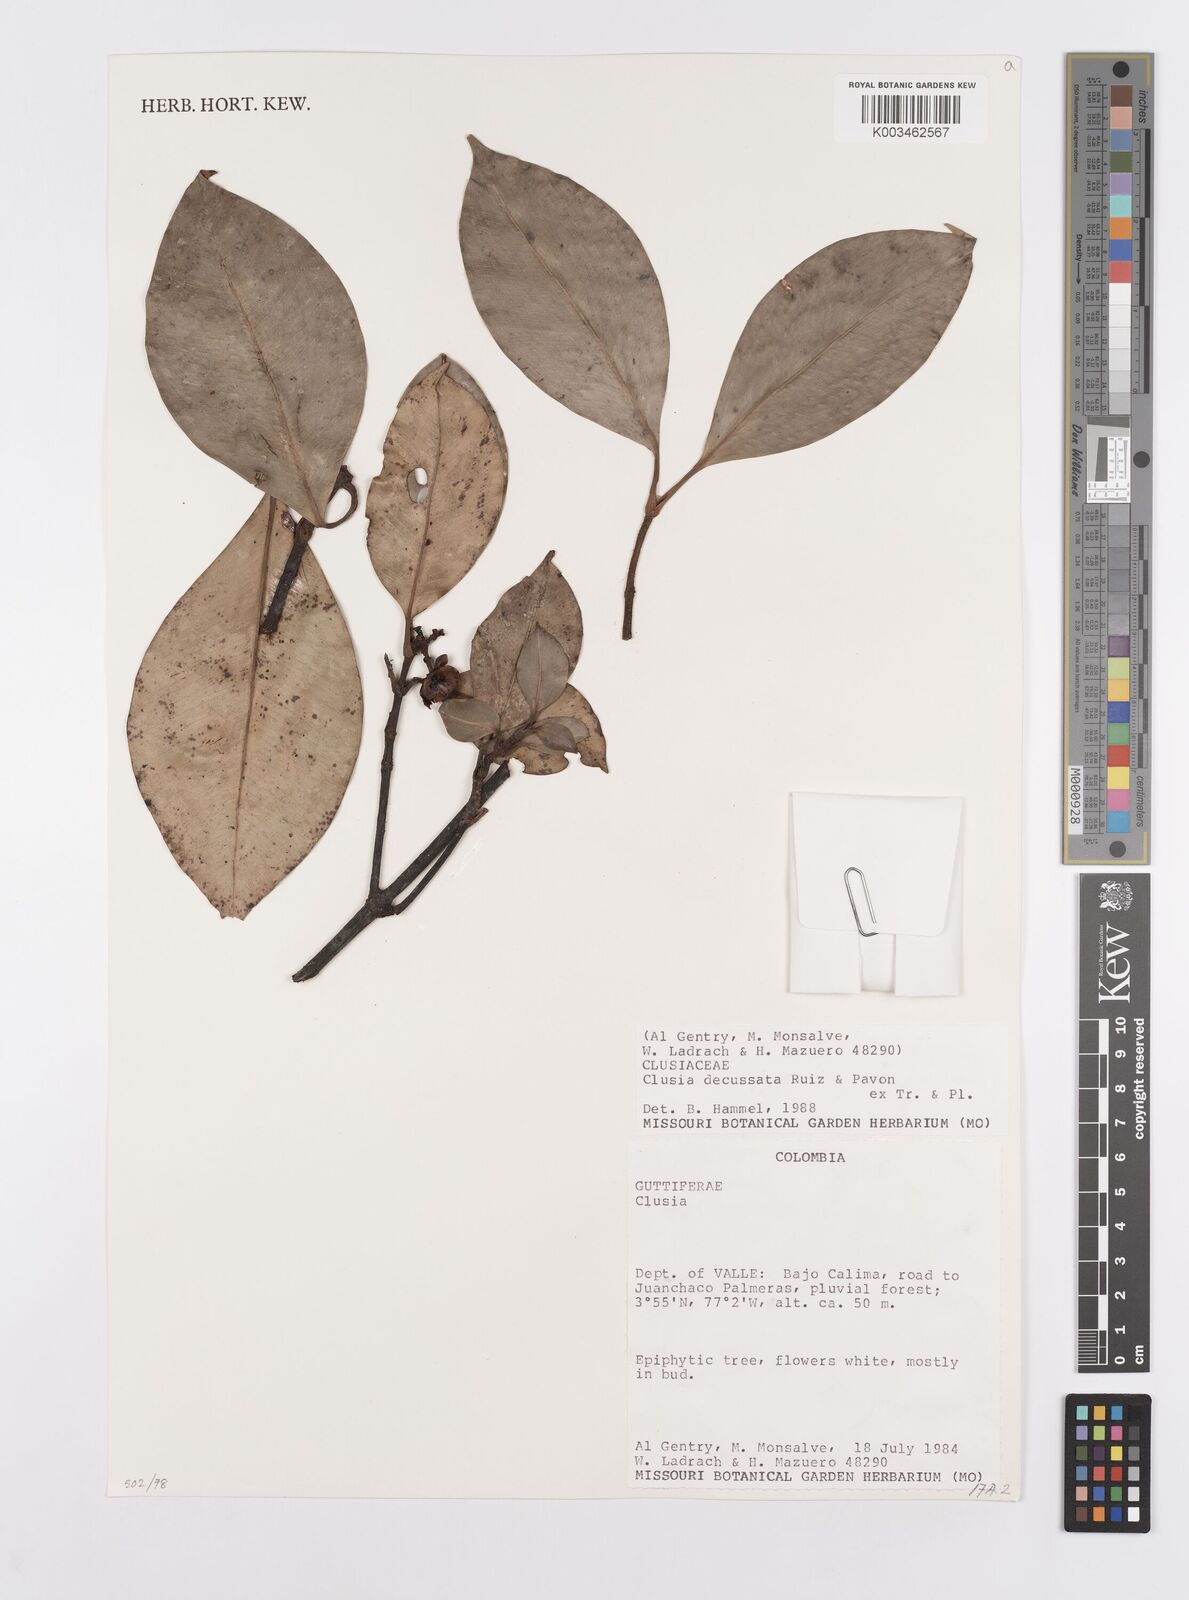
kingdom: Plantae
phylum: Tracheophyta
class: Magnoliopsida
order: Malpighiales
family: Clusiaceae
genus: Clusia
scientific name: Clusia decussata
